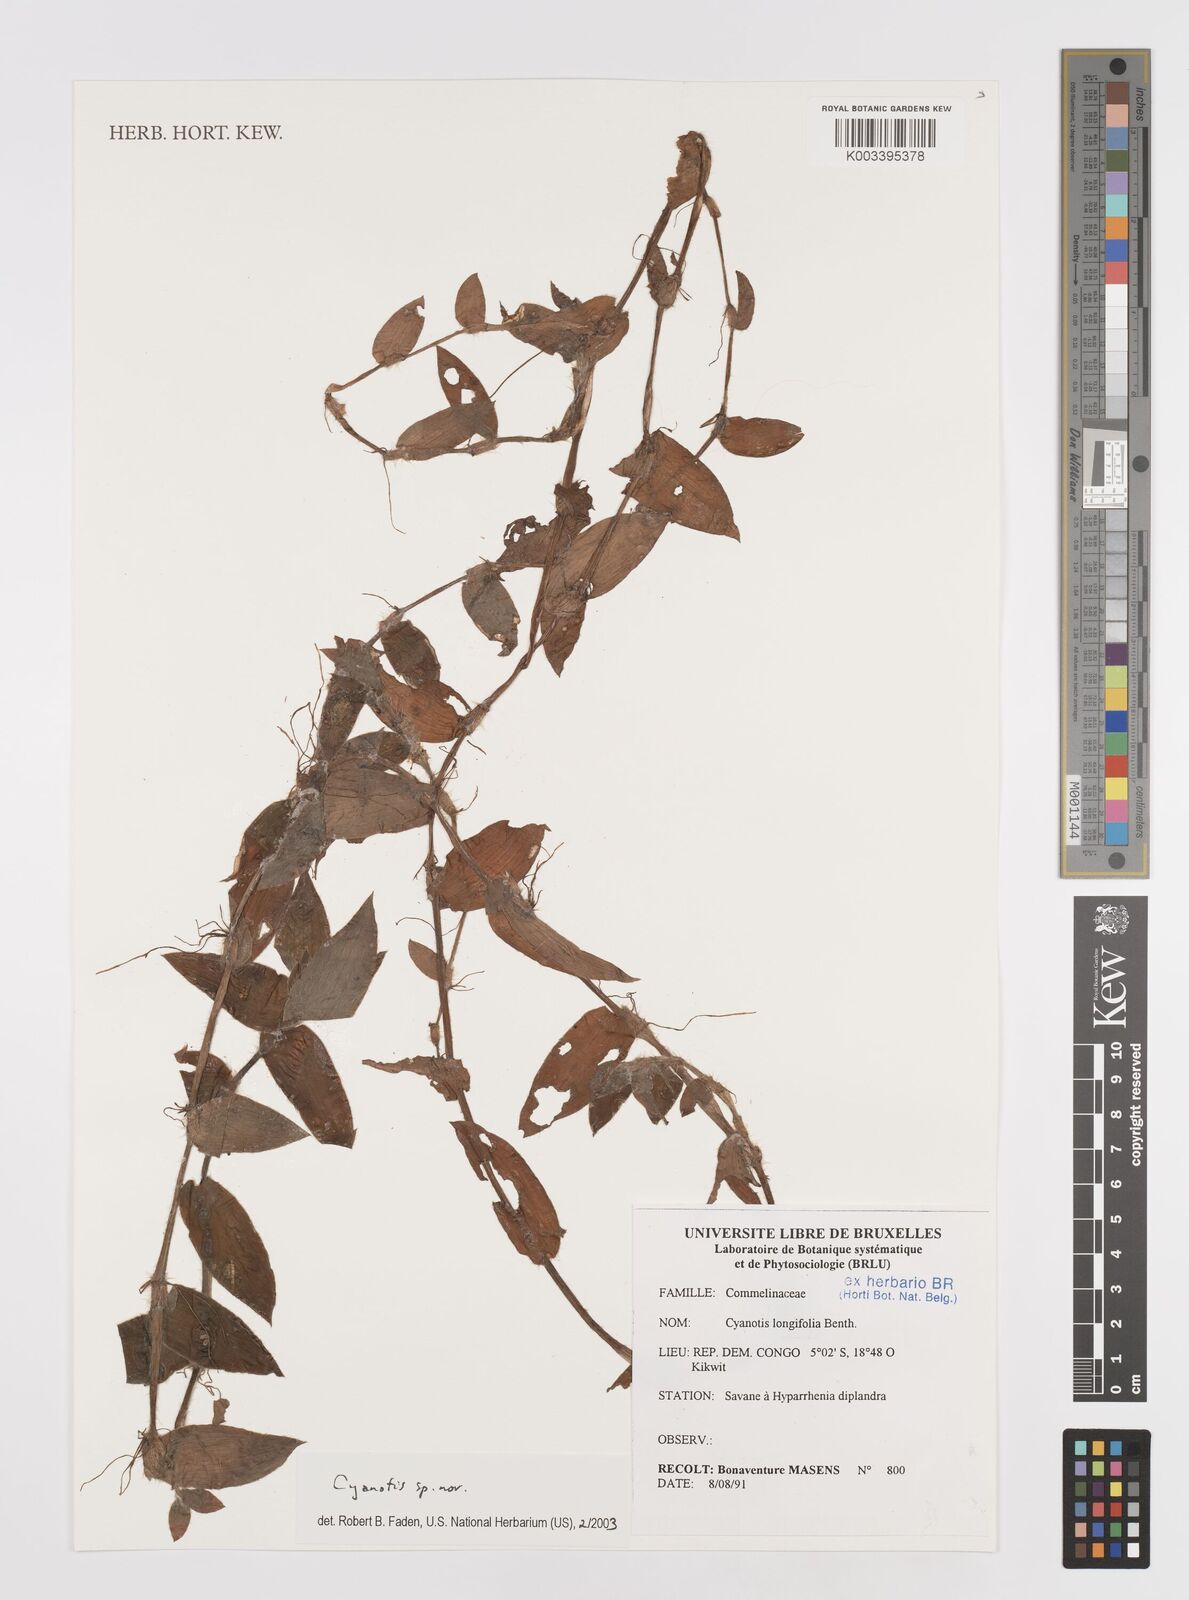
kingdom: Plantae
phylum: Tracheophyta
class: Liliopsida
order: Commelinales
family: Commelinaceae
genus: Cyanotis
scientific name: Cyanotis foecunda
